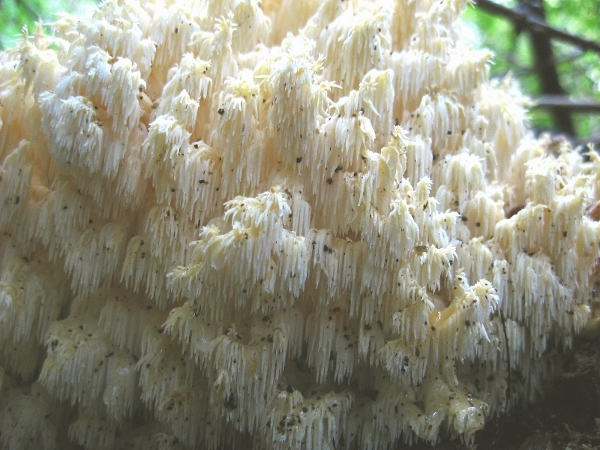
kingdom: Fungi
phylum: Basidiomycota
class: Agaricomycetes
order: Russulales
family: Hericiaceae
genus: Hericium
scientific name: Hericium coralloides
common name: koralpigsvamp
